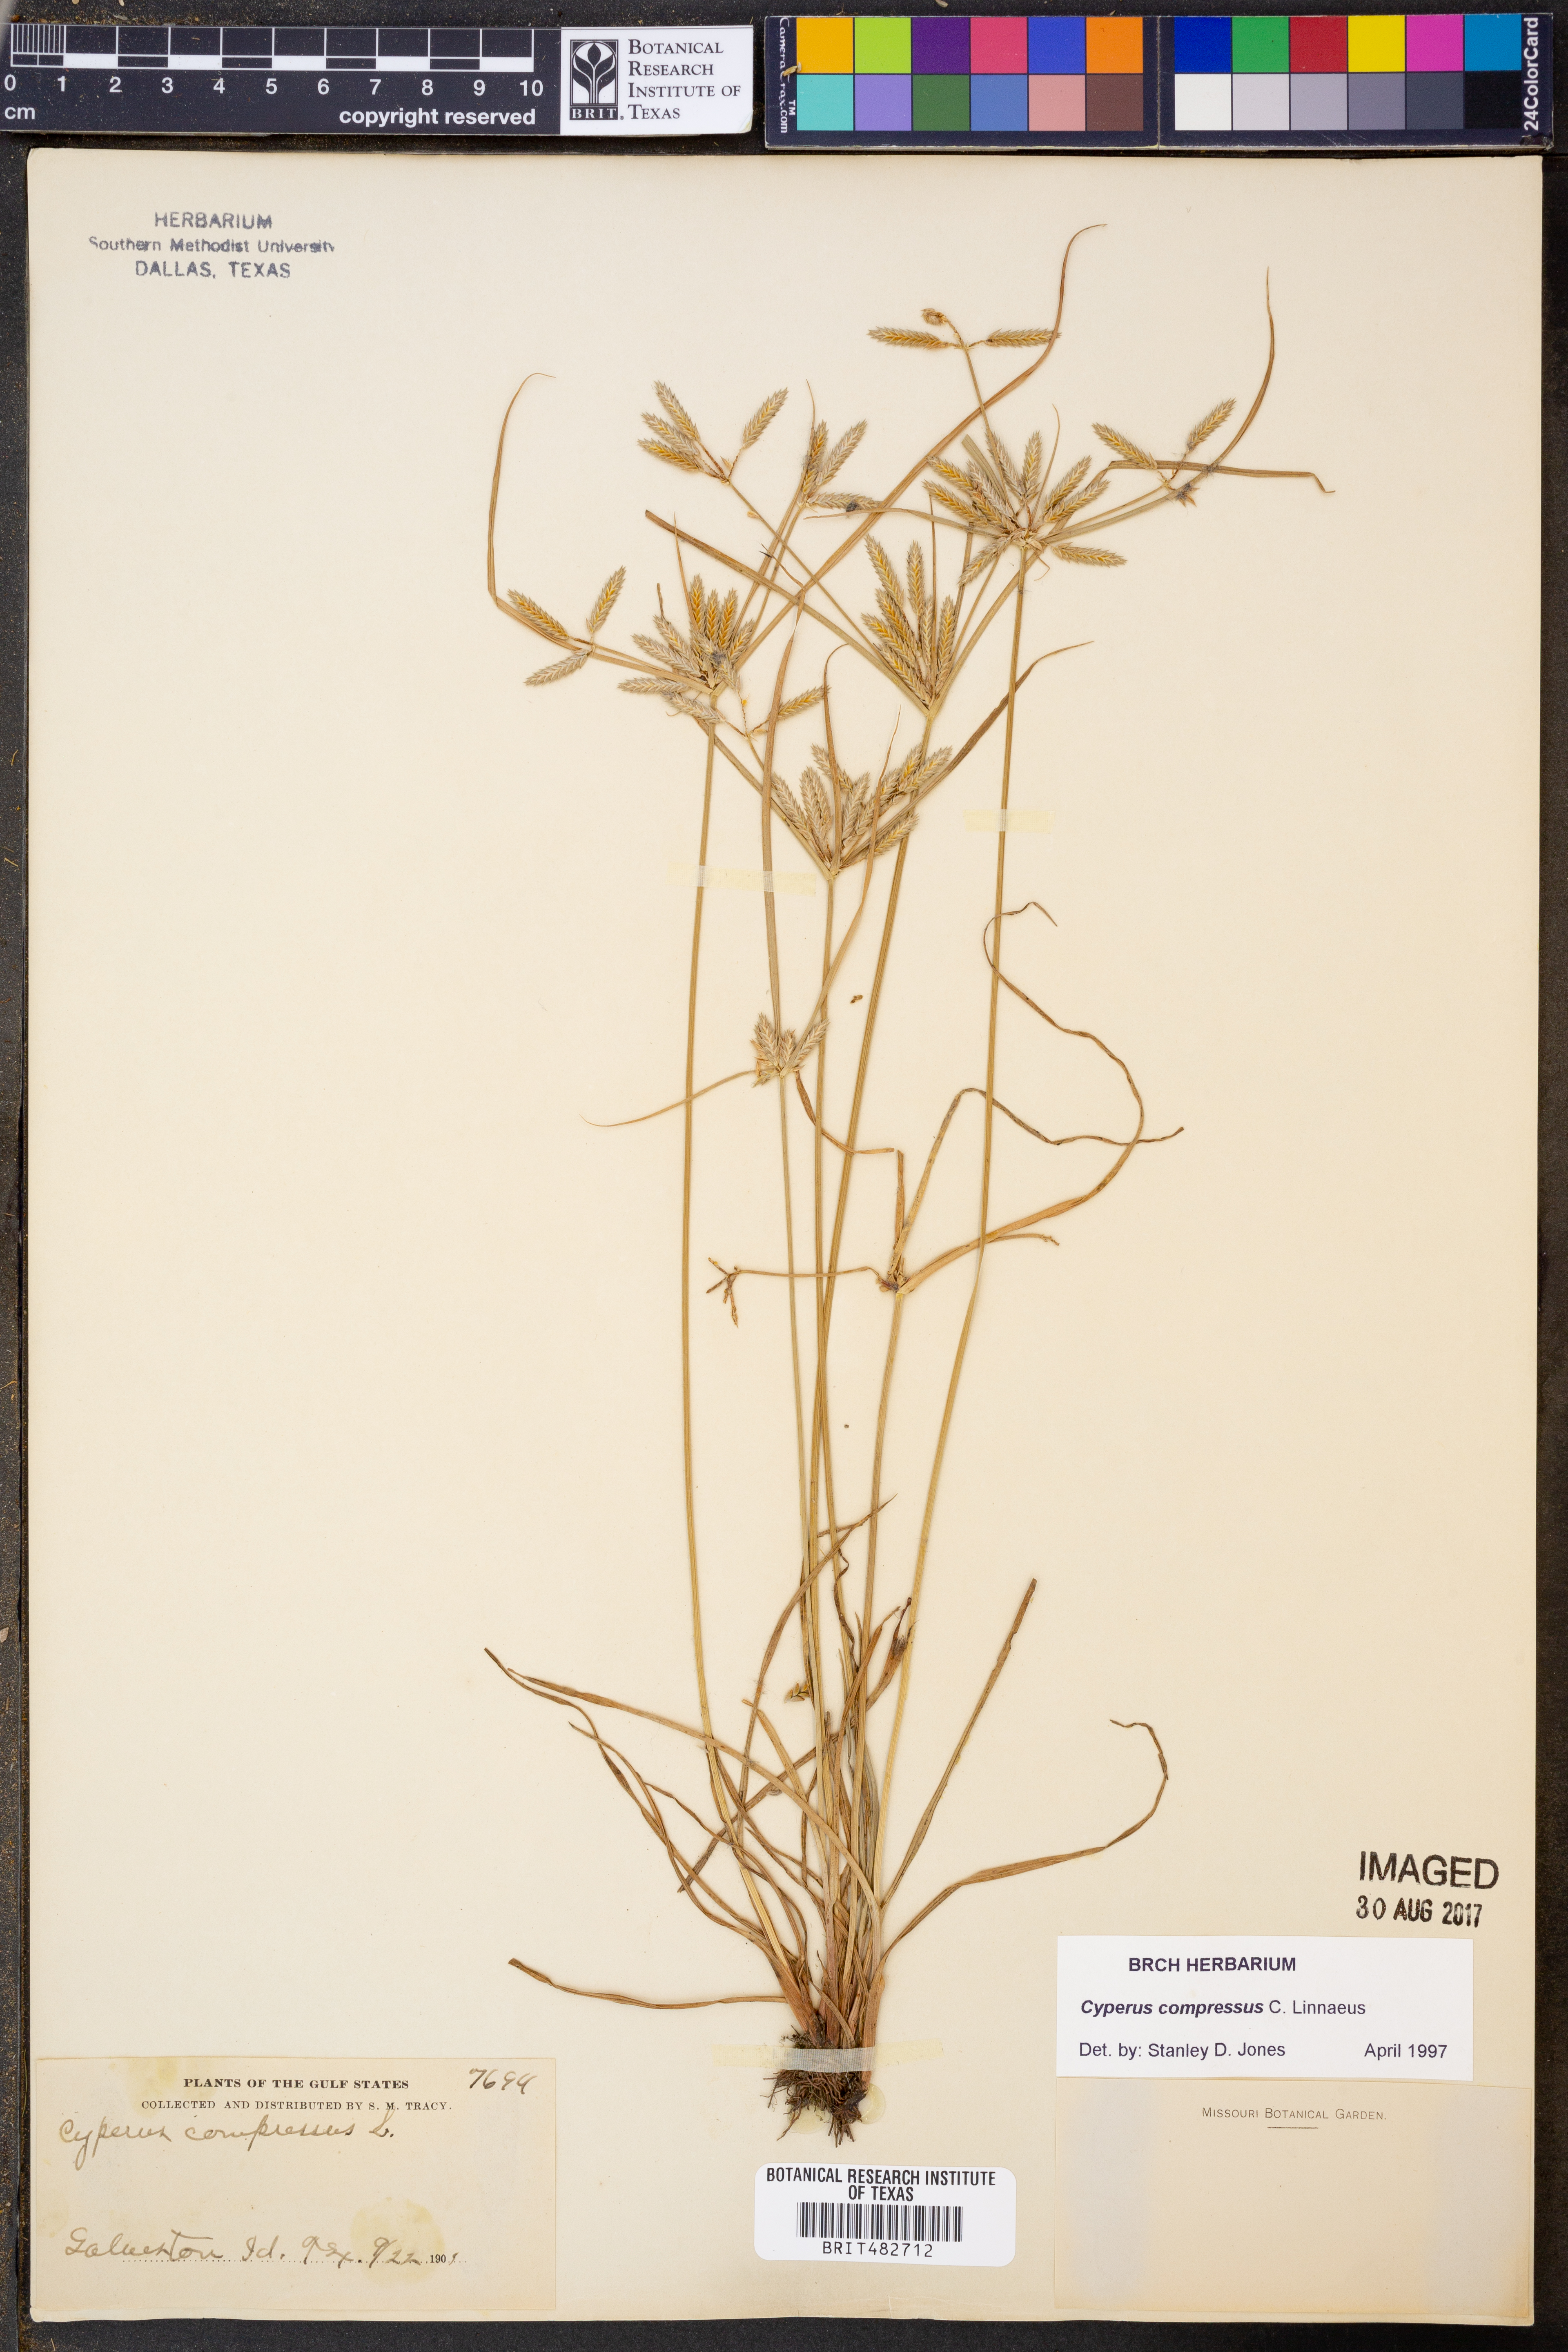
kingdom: Plantae
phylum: Tracheophyta
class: Liliopsida
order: Poales
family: Cyperaceae
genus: Cyperus
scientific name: Cyperus compressus
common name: Poorland flatsedge
